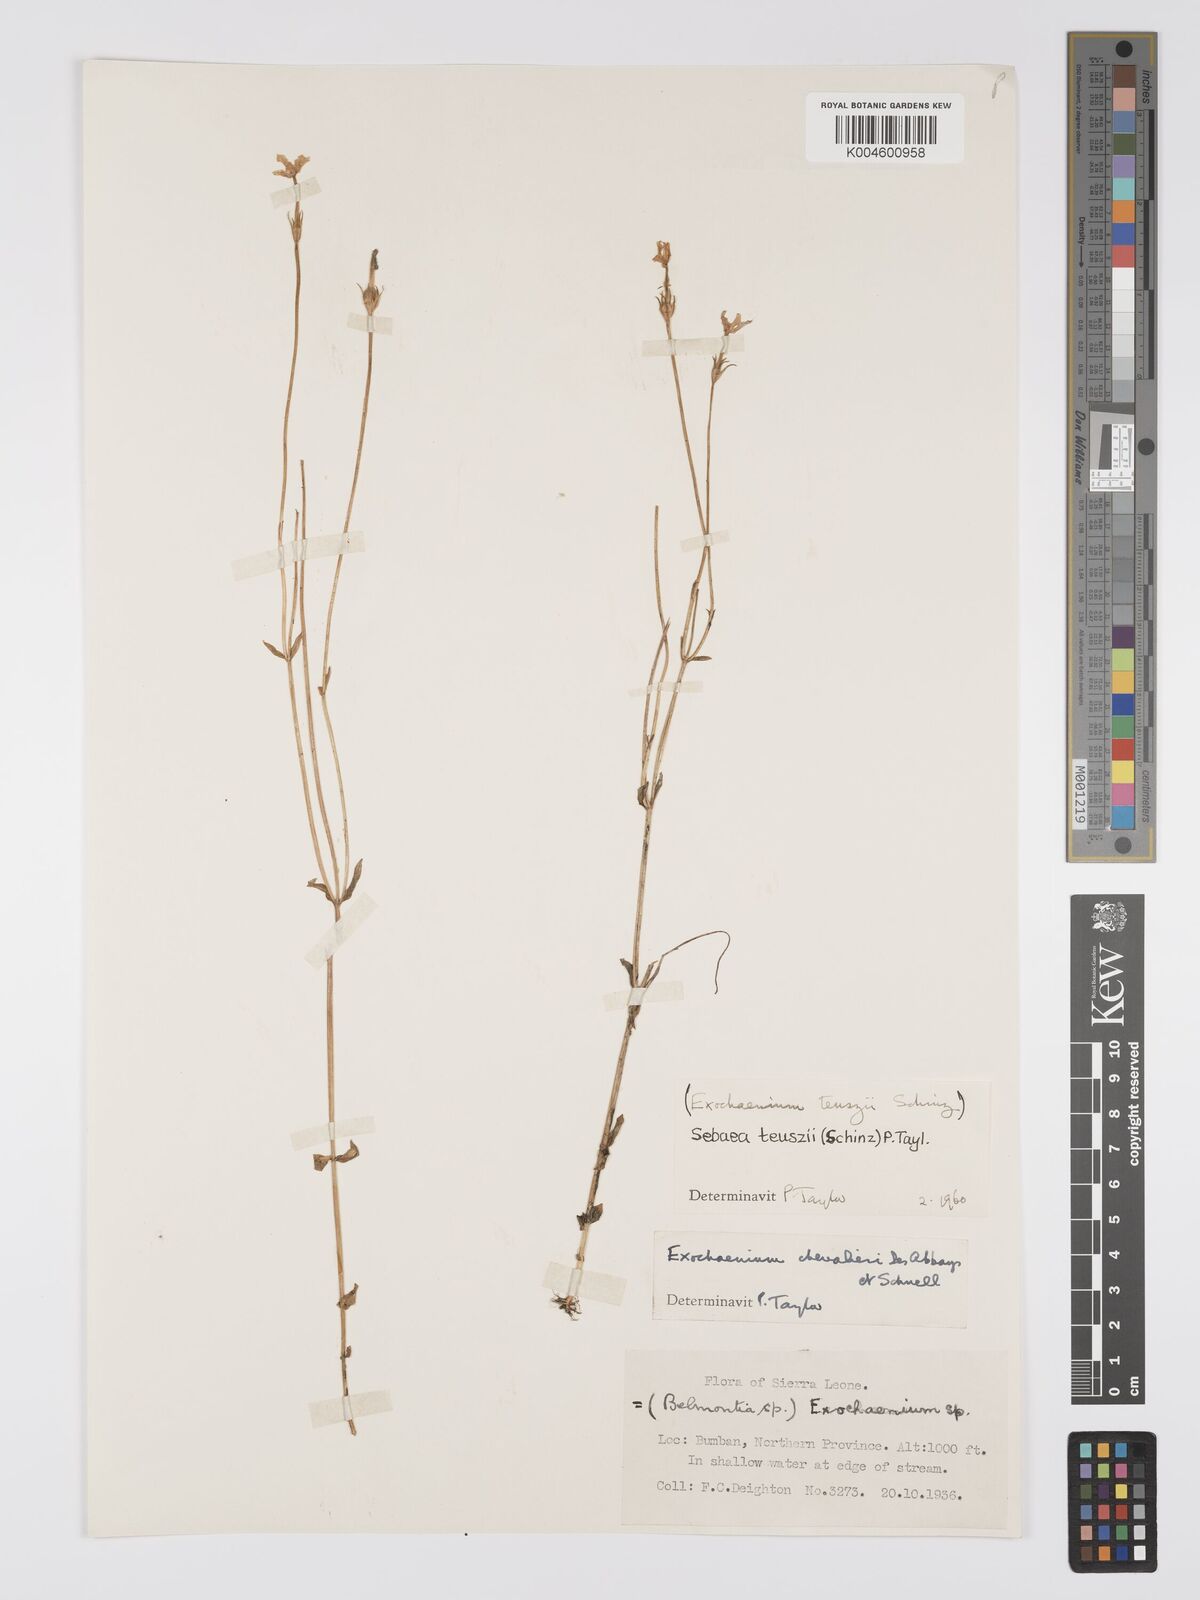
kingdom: Plantae
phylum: Tracheophyta
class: Magnoliopsida
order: Gentianales
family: Gentianaceae
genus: Exochaenium
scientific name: Exochaenium teuszii
